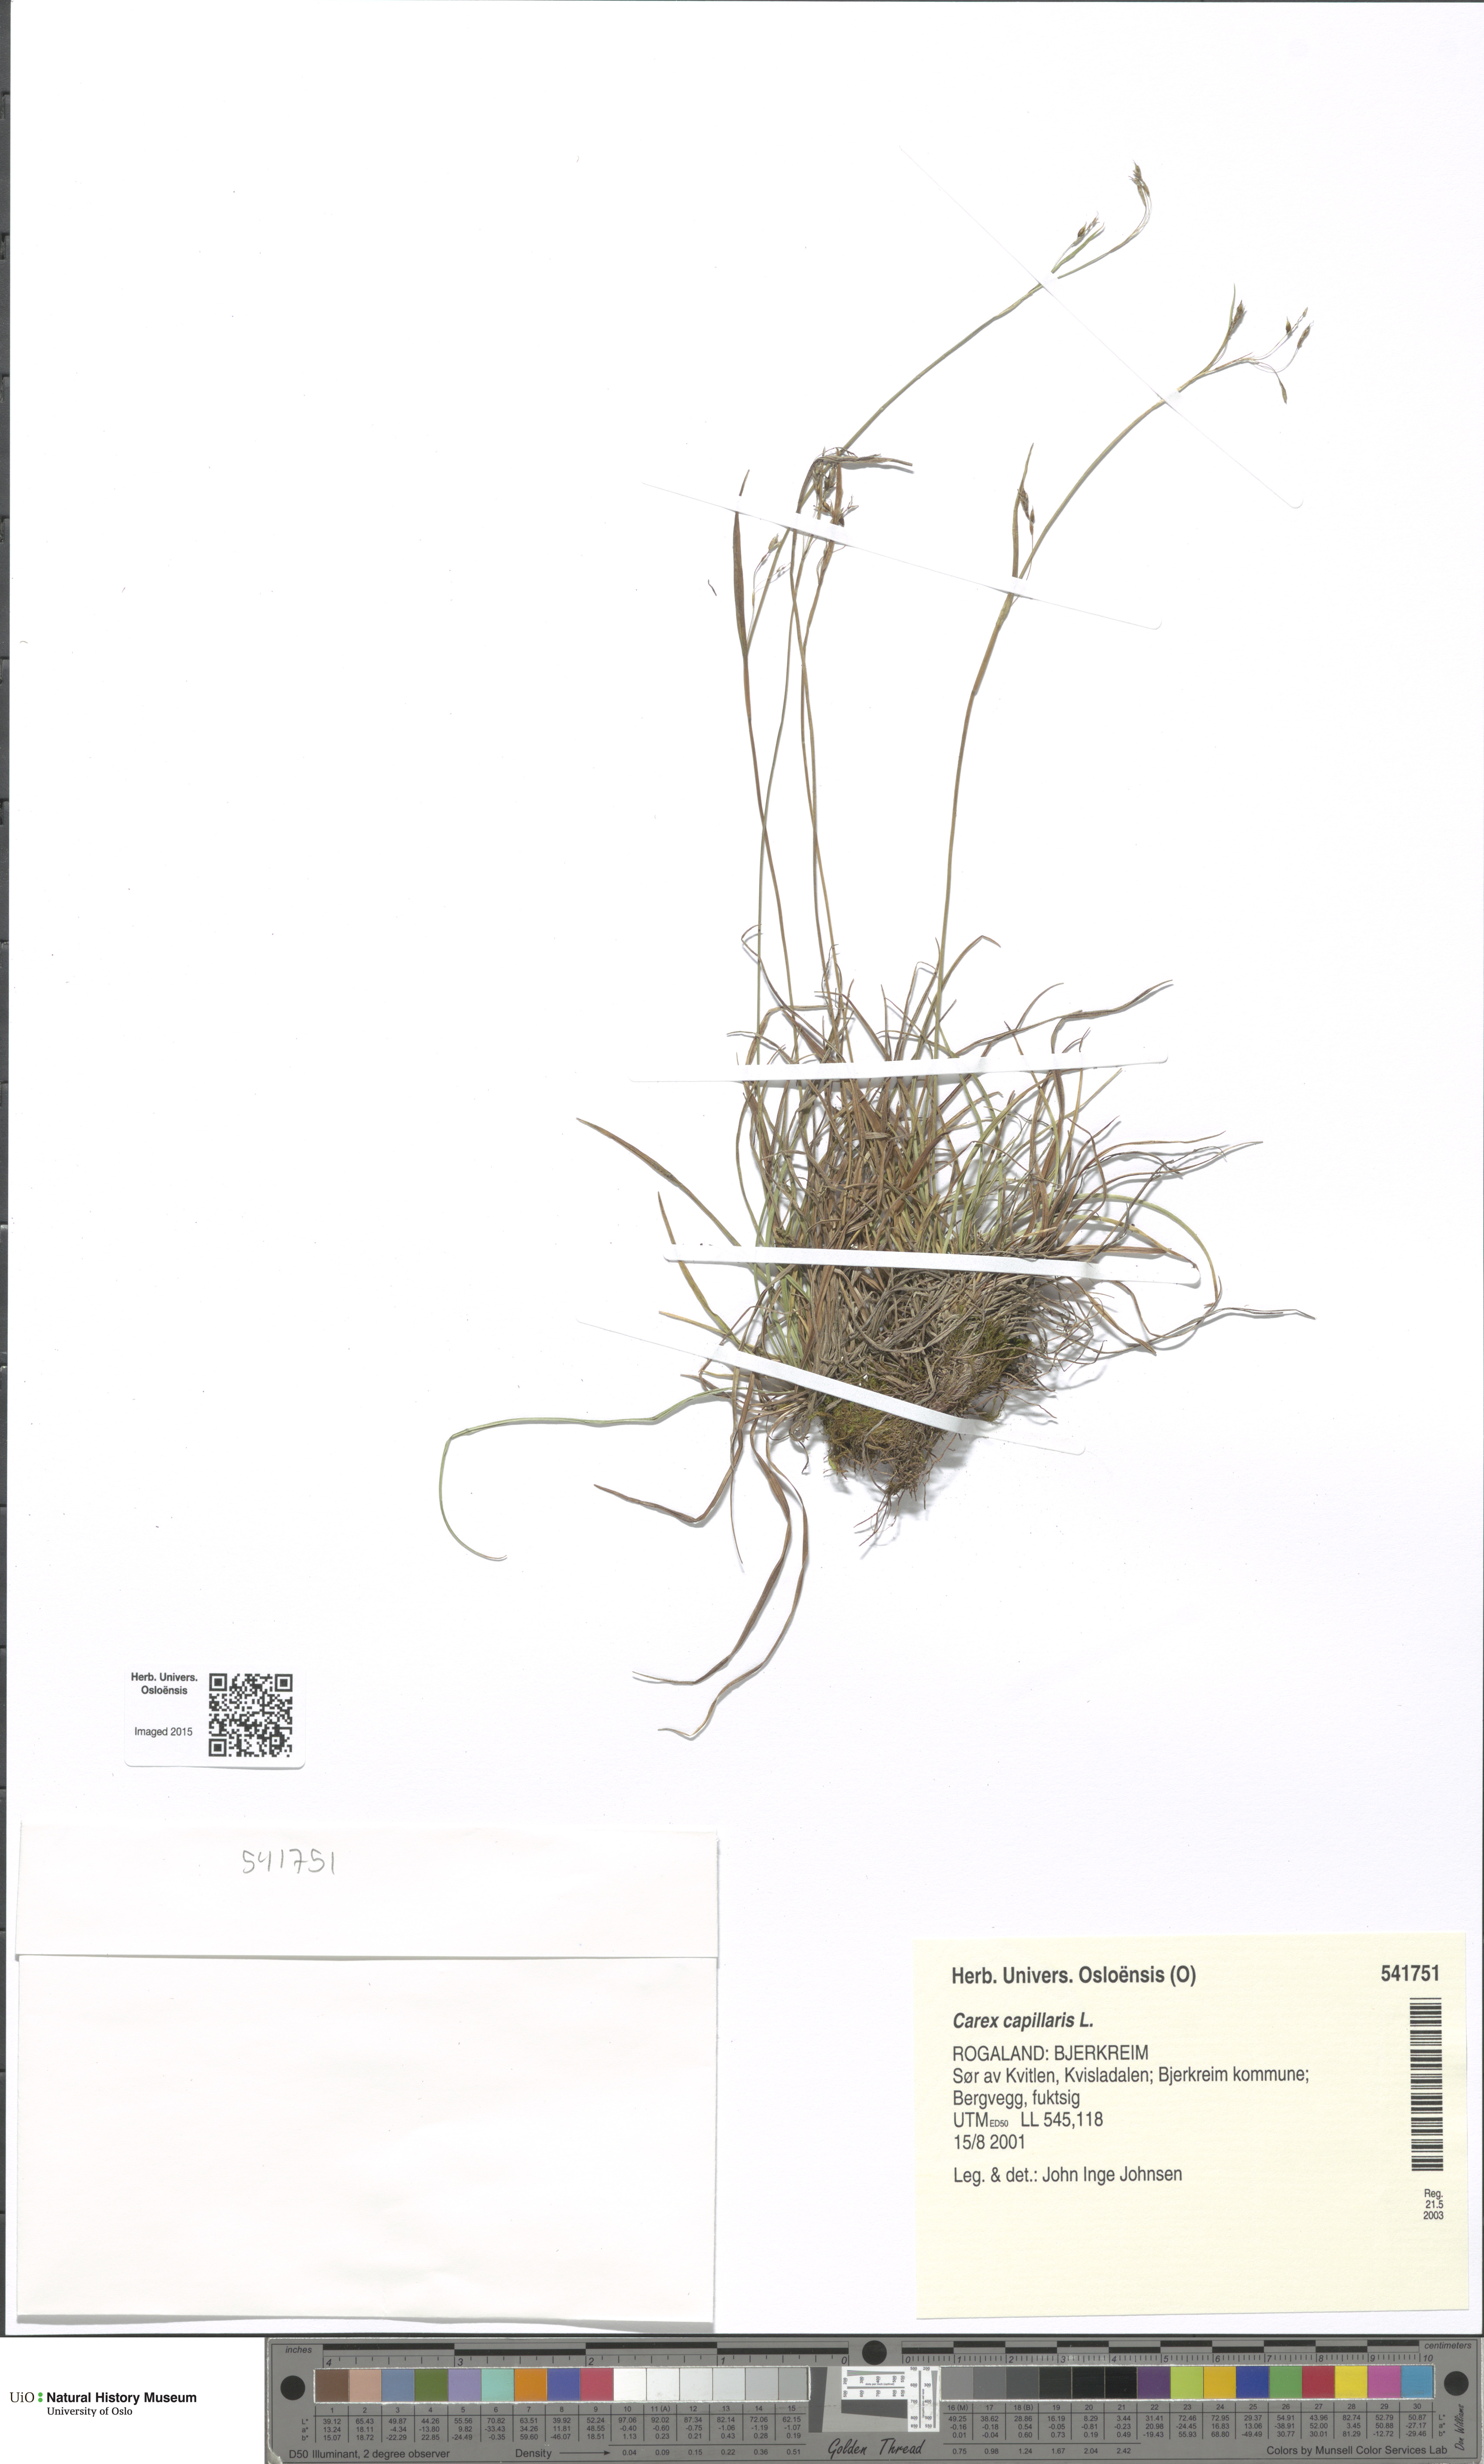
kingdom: Plantae
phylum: Tracheophyta
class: Liliopsida
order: Poales
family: Cyperaceae
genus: Carex
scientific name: Carex capillaris
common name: Hair sedge
